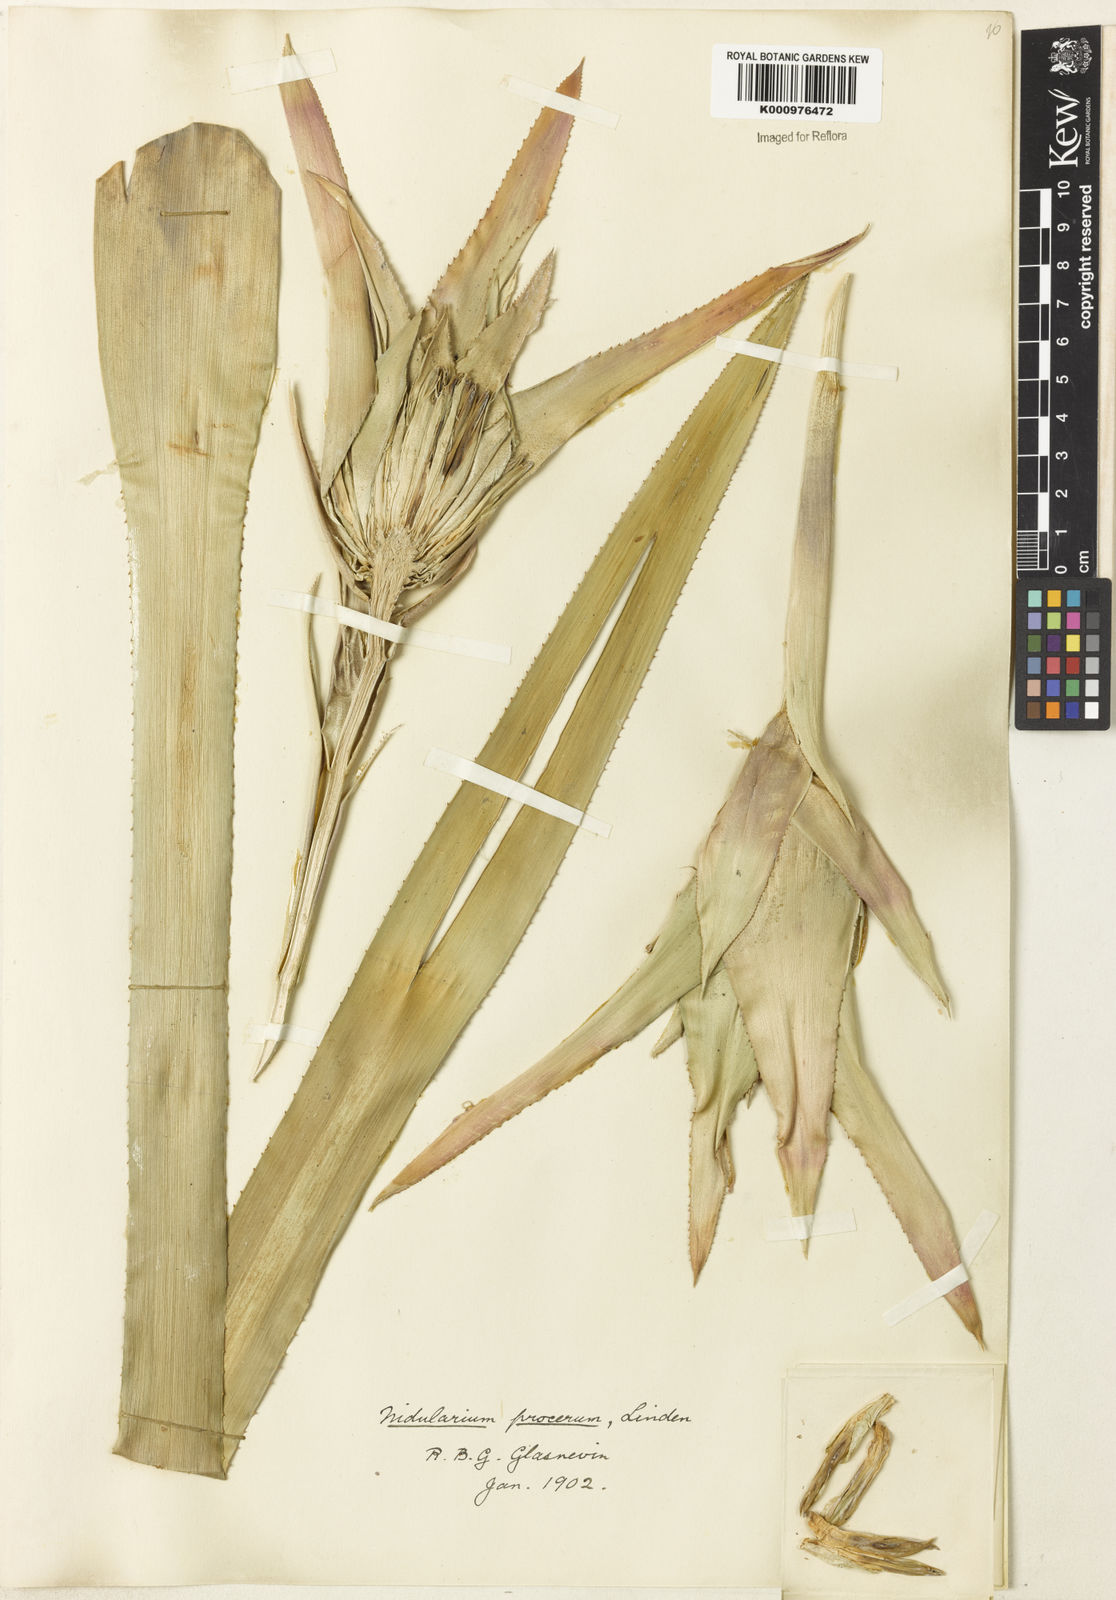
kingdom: Plantae
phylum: Tracheophyta
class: Liliopsida
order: Poales
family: Bromeliaceae
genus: Nidularium
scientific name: Nidularium procerum
